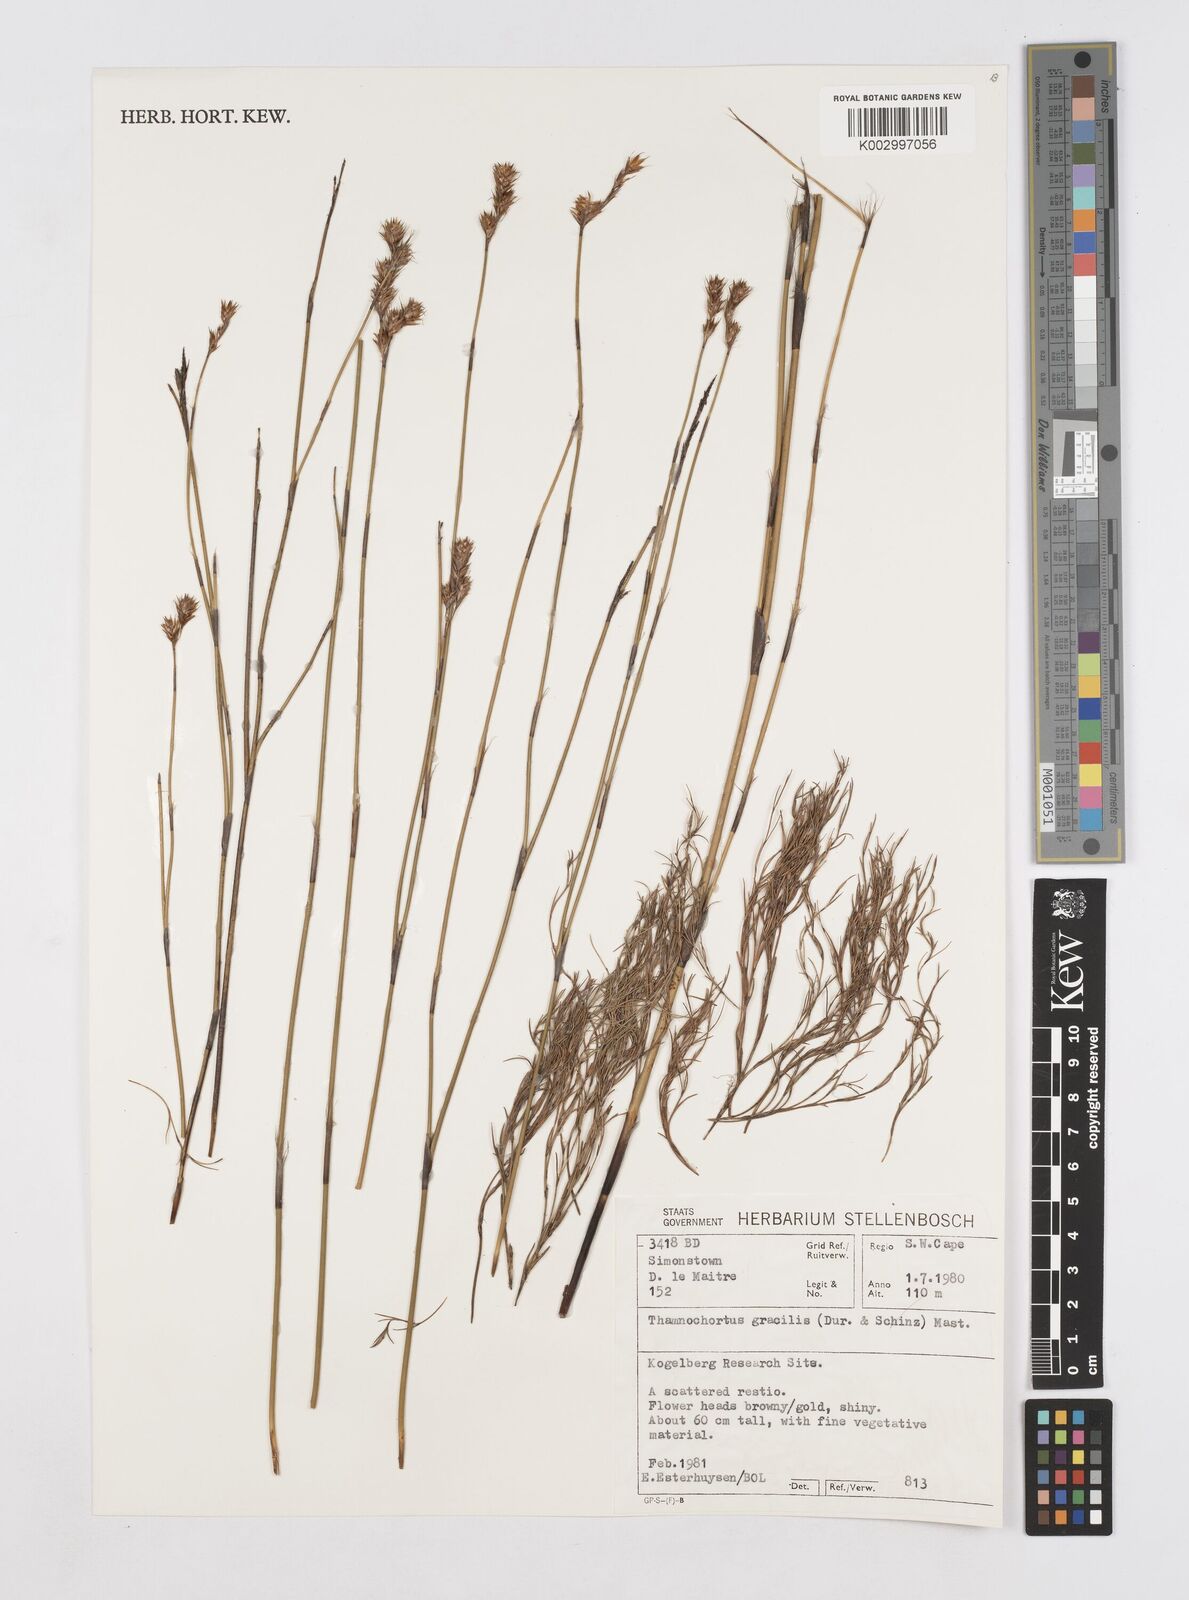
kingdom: Plantae
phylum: Tracheophyta
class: Liliopsida
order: Poales
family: Restionaceae
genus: Thamnochortus
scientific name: Thamnochortus gracilis
